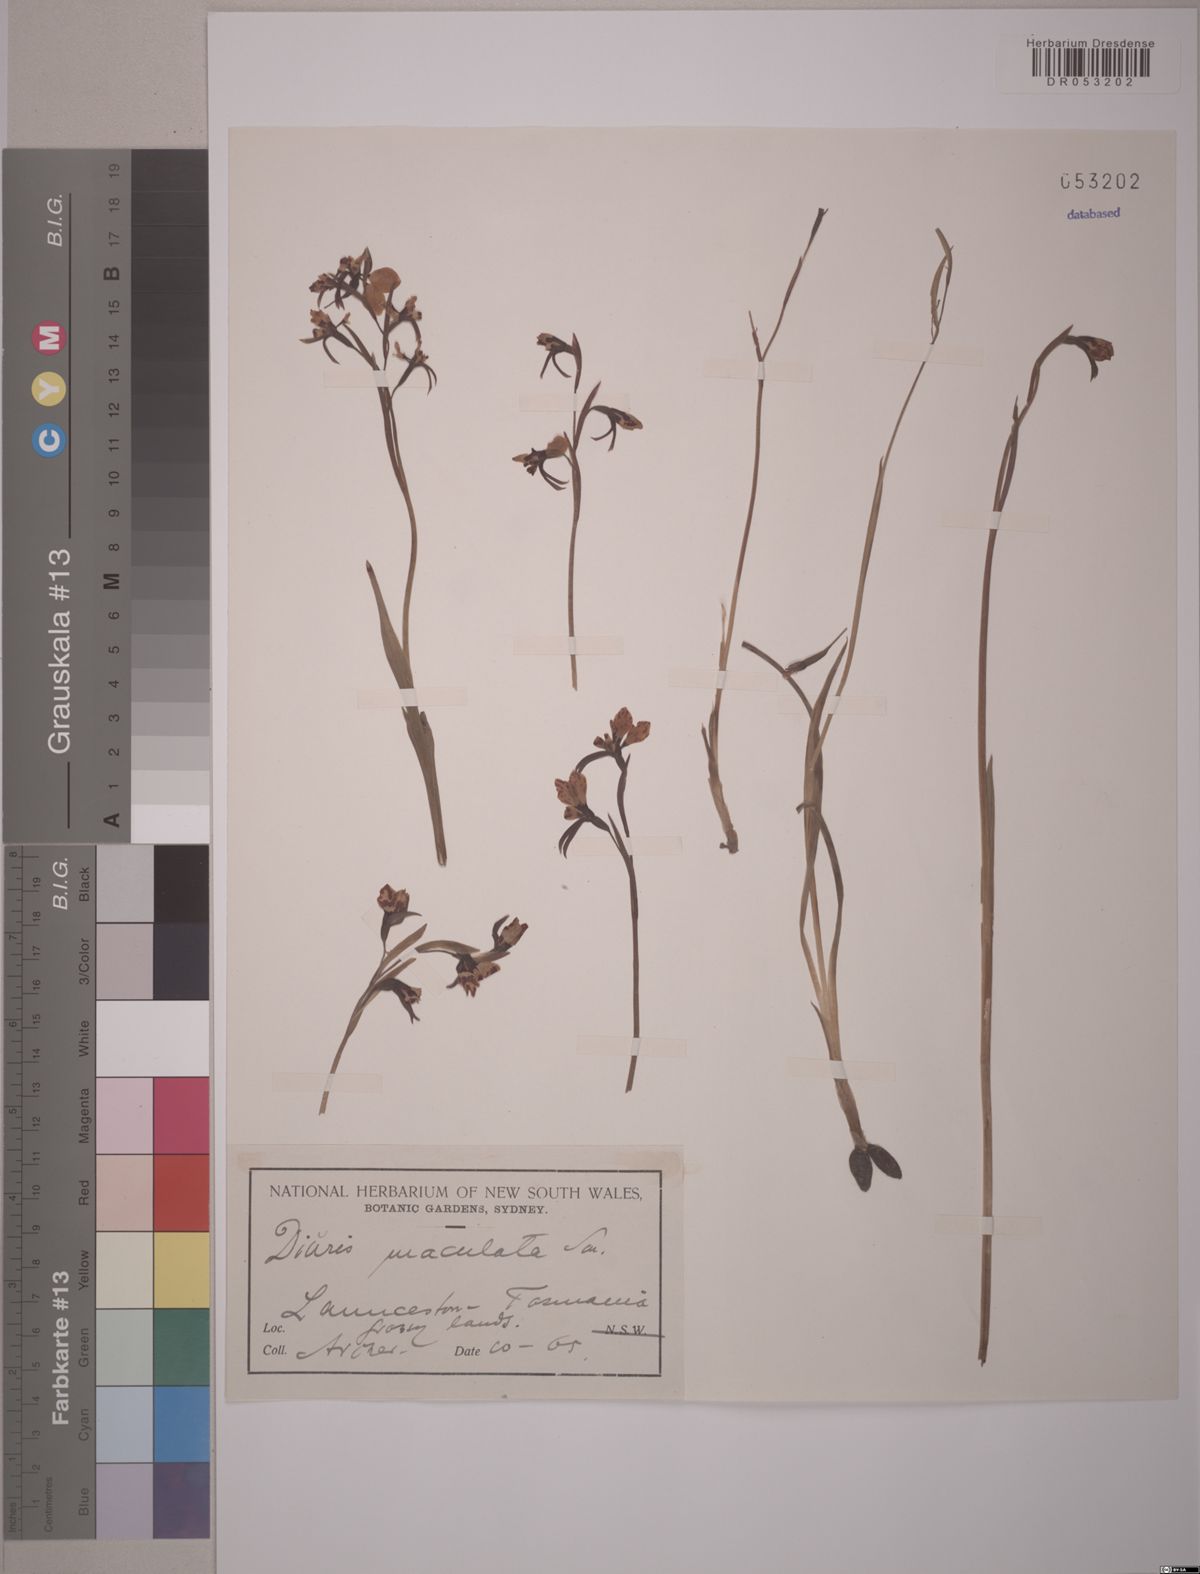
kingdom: Plantae
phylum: Tracheophyta
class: Liliopsida
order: Asparagales
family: Orchidaceae
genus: Diuris
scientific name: Diuris maculata
